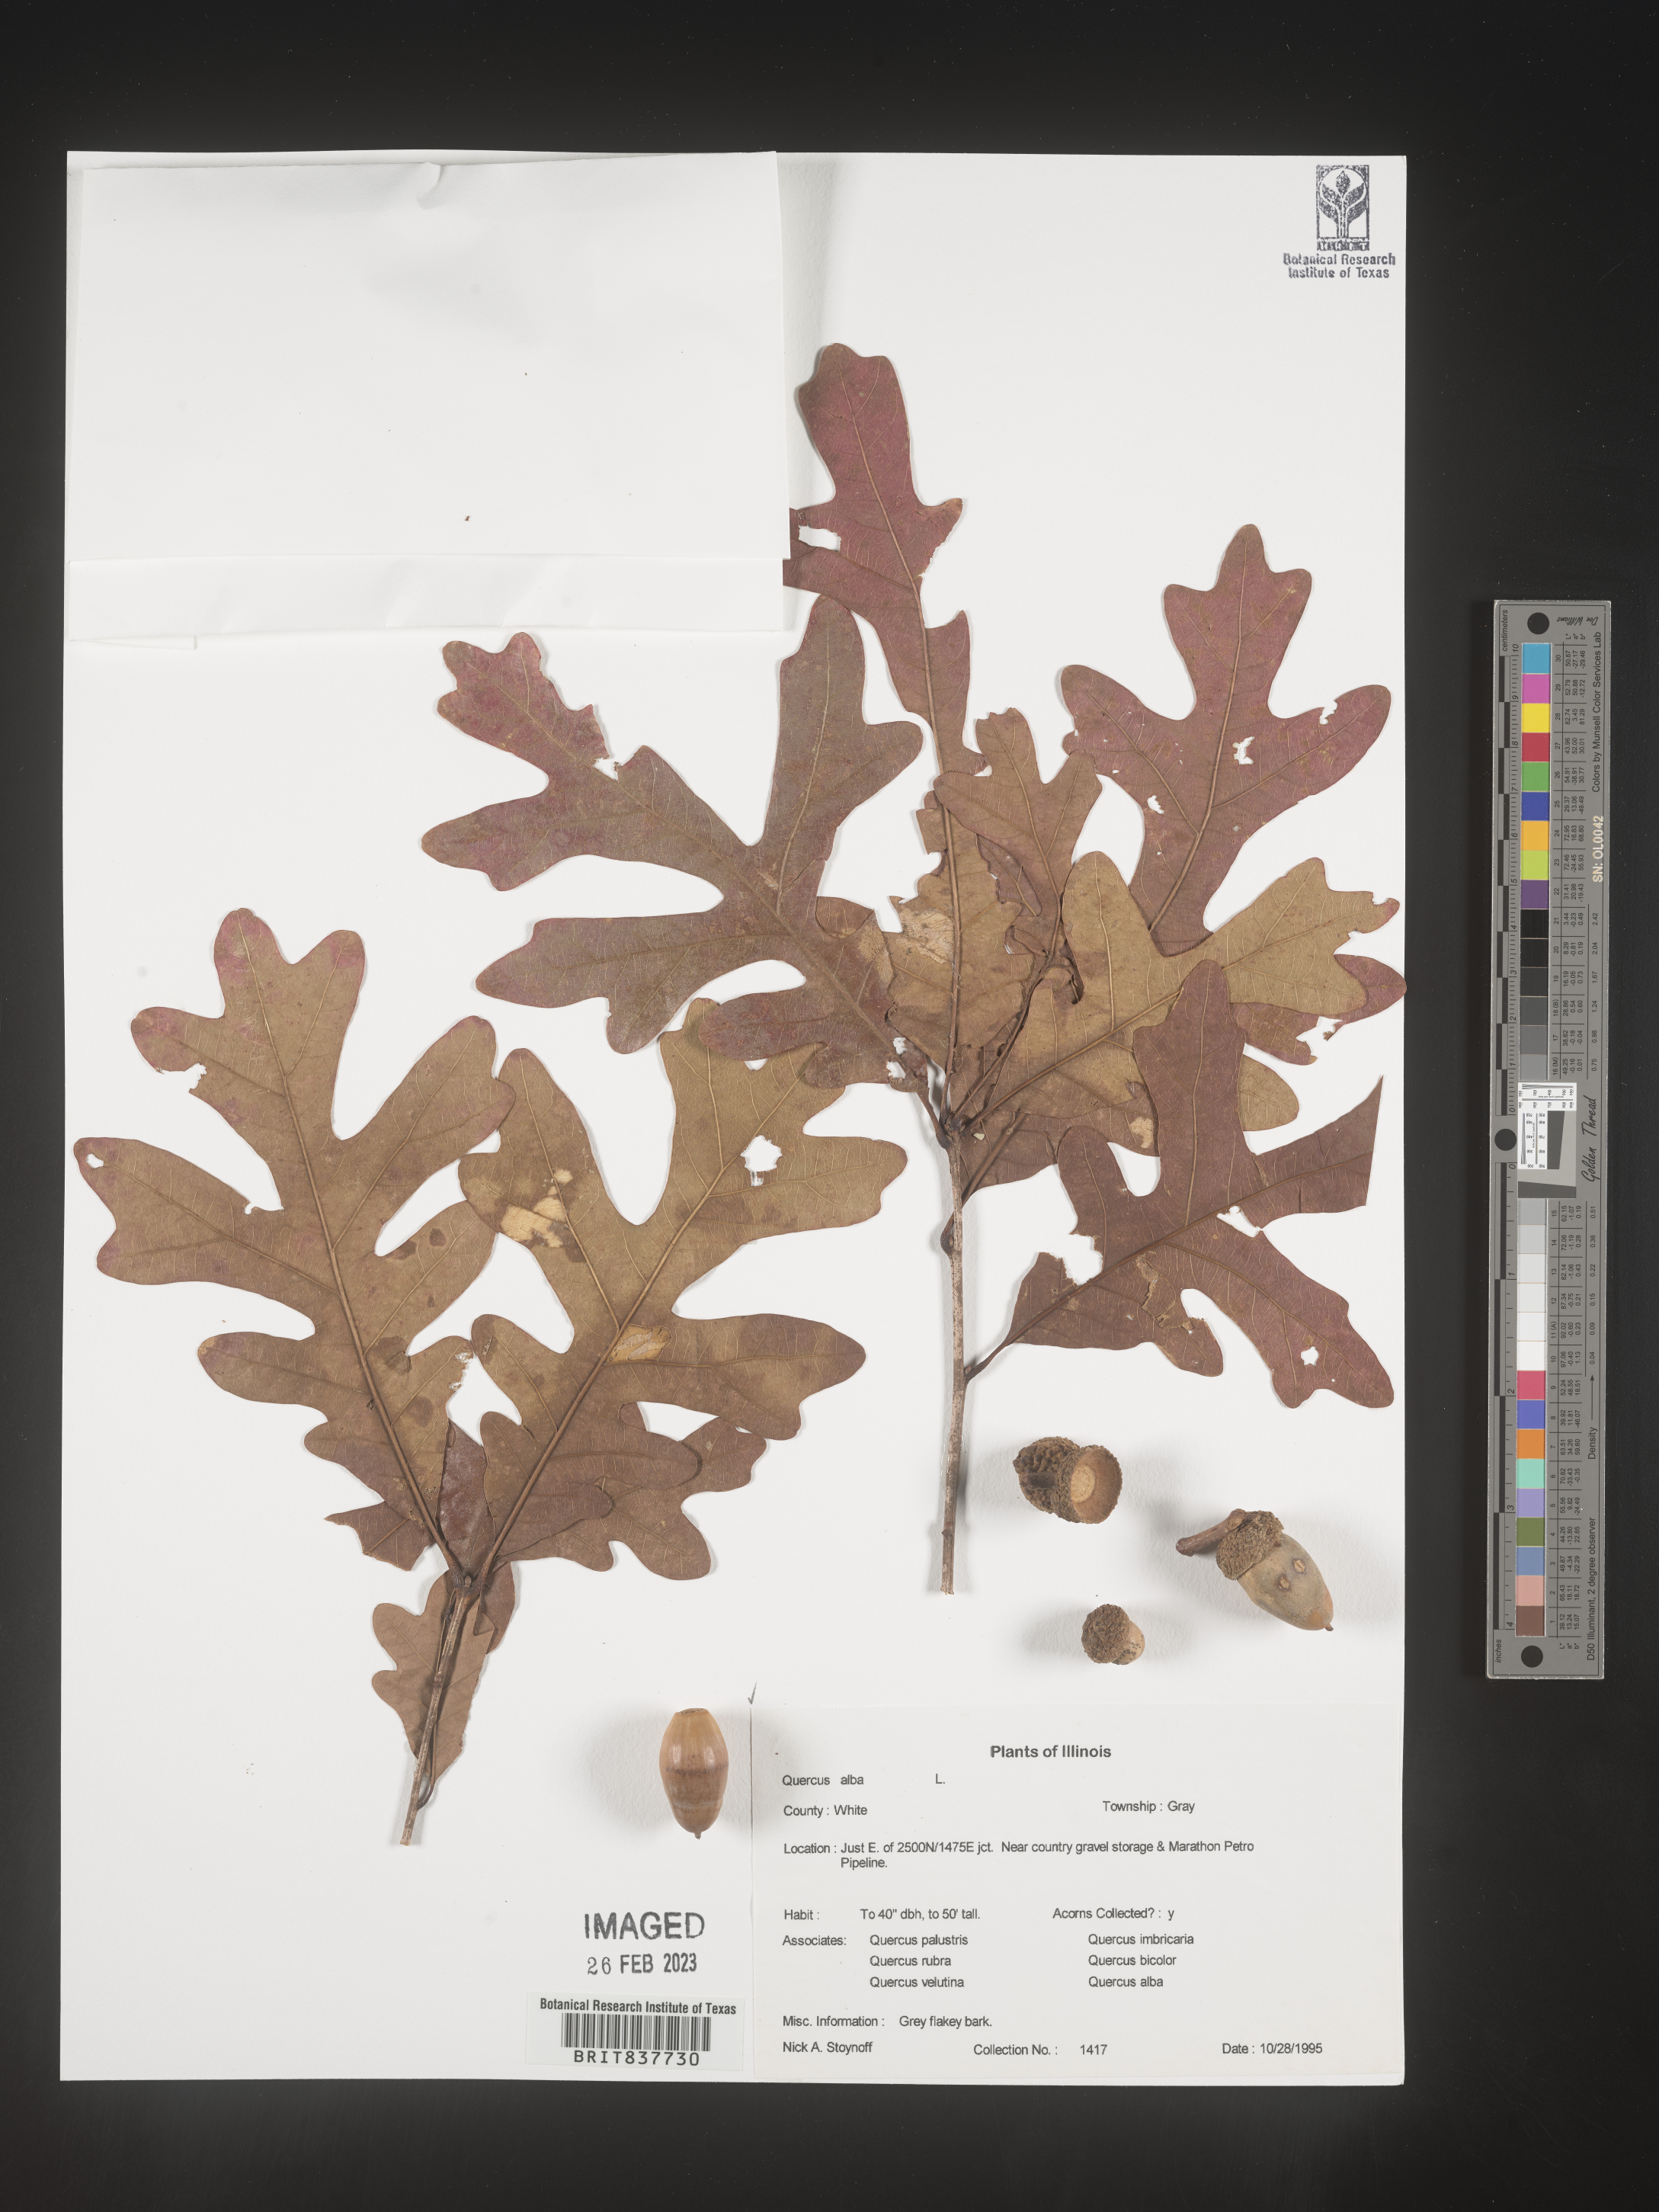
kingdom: Plantae
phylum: Tracheophyta
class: Magnoliopsida
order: Fagales
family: Fagaceae
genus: Quercus
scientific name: Quercus alba
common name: White oak
